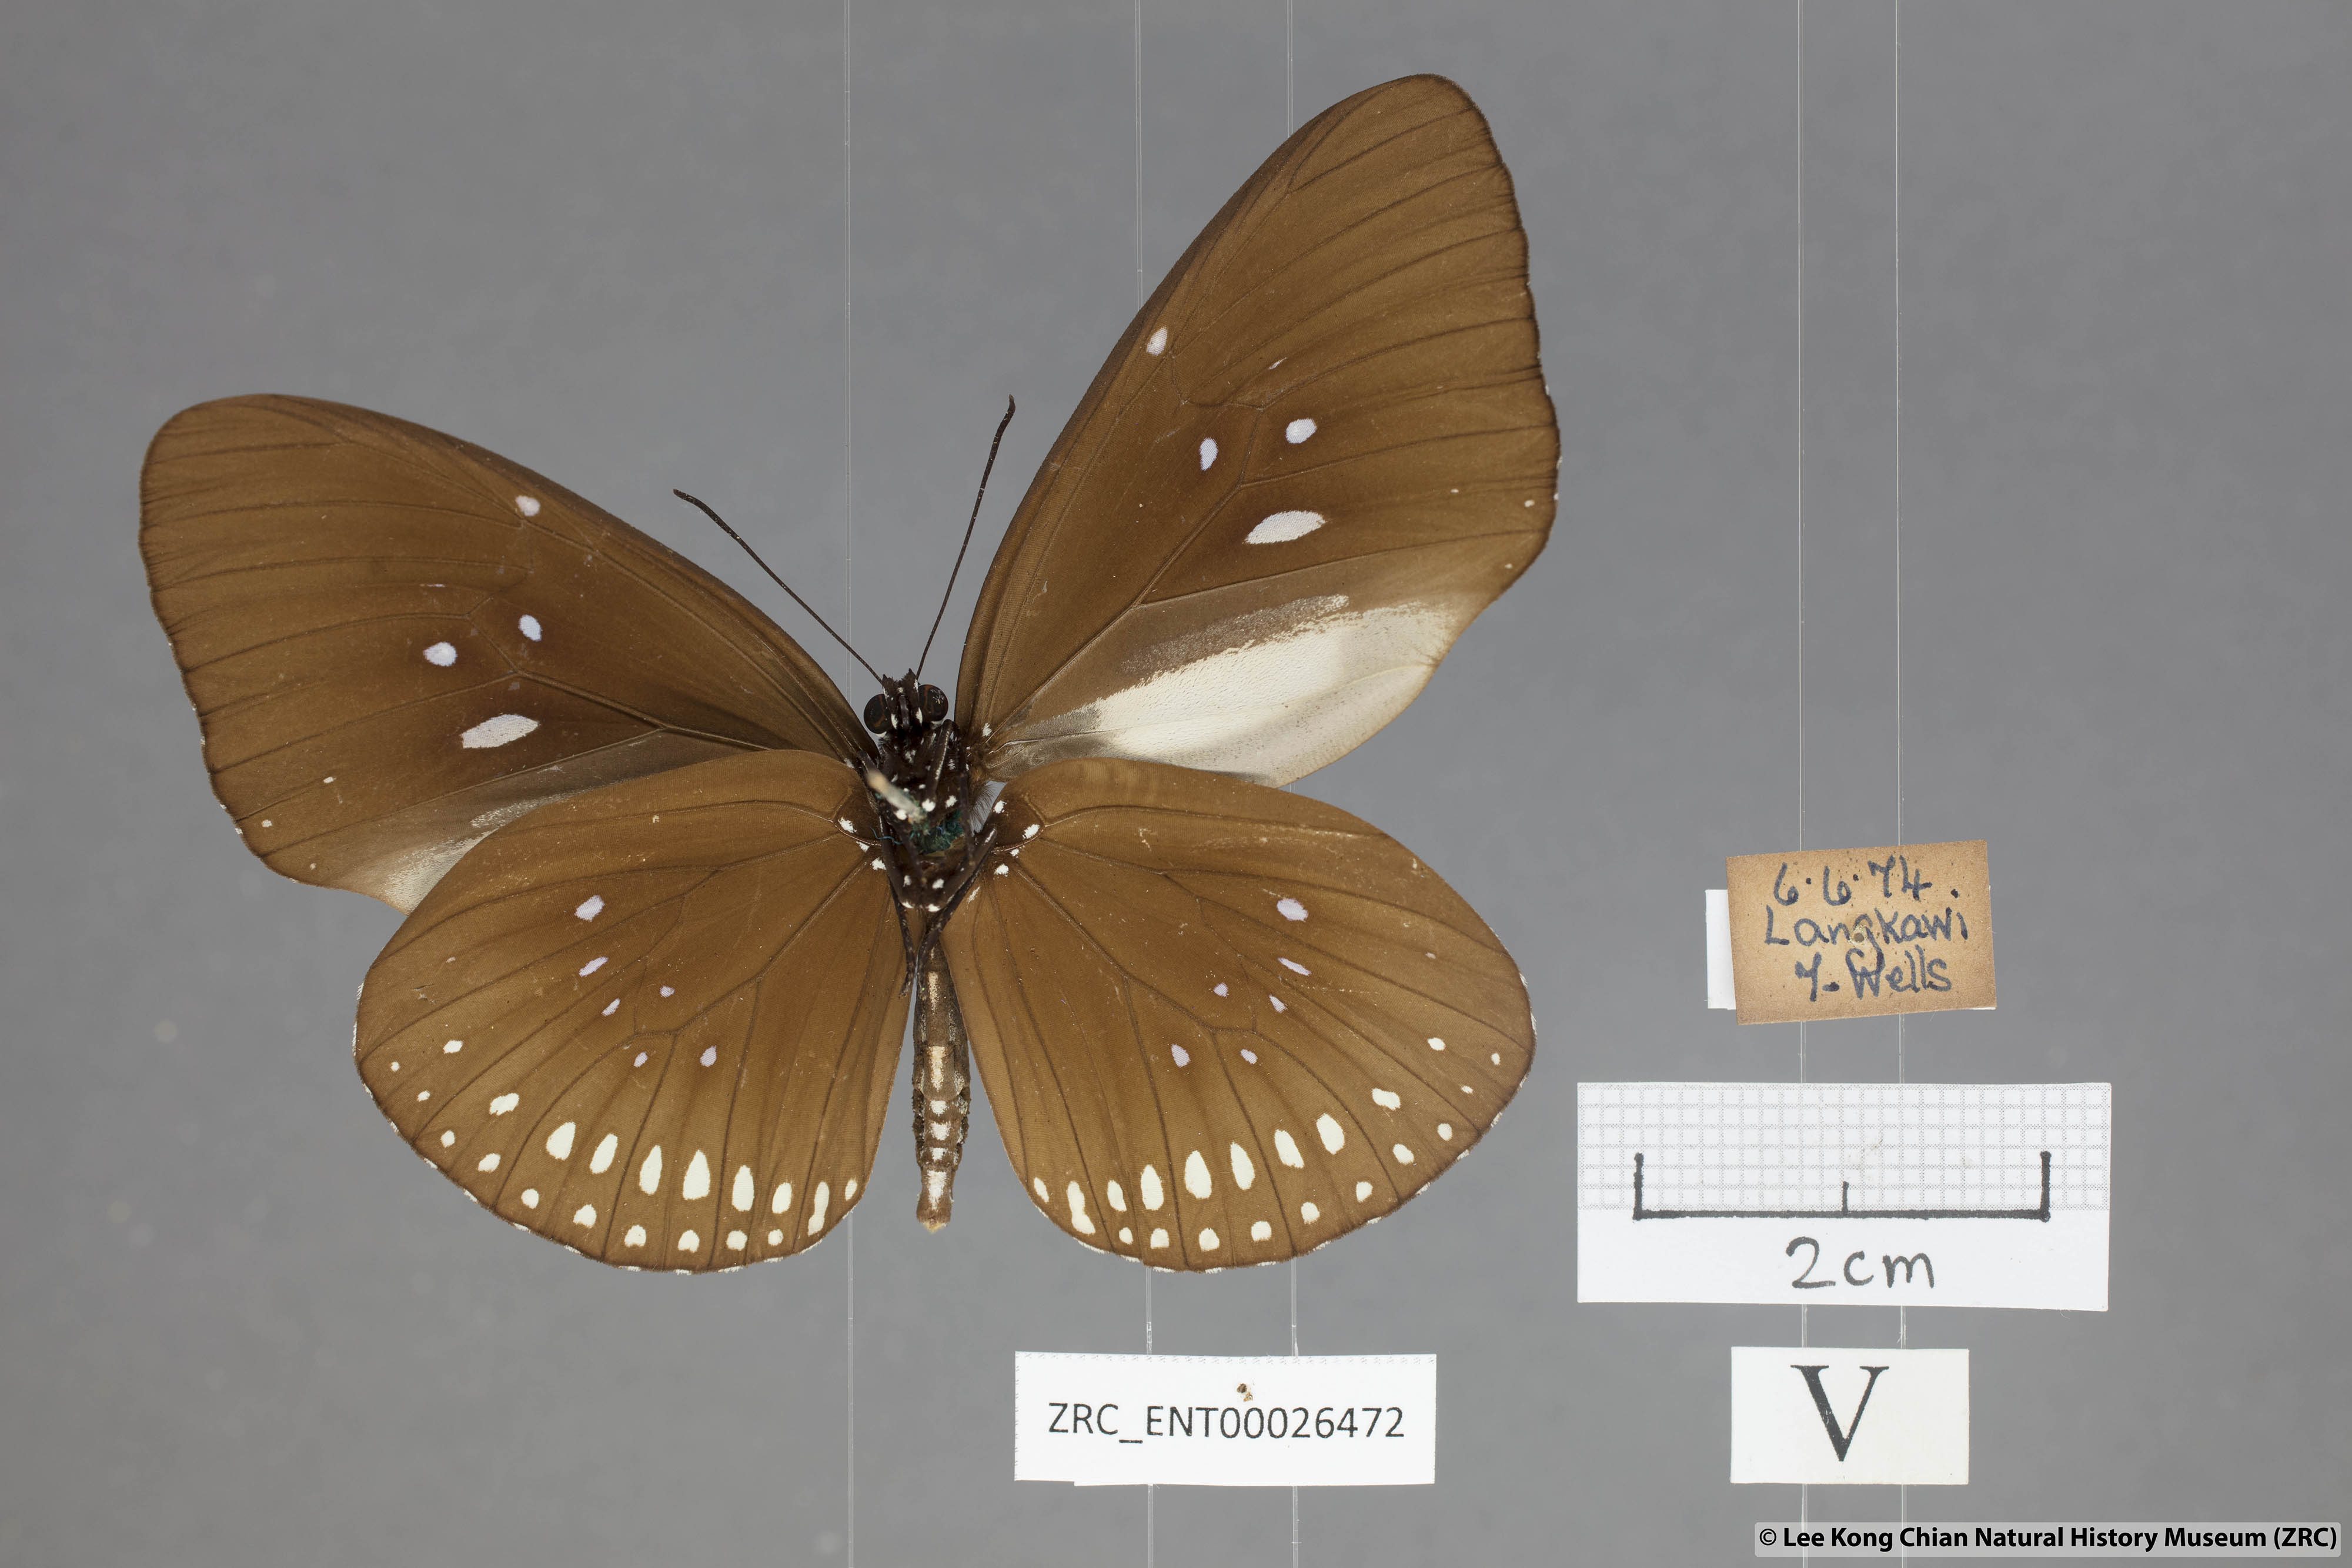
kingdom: Animalia
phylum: Arthropoda
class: Insecta
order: Lepidoptera
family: Nymphalidae
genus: Euploea
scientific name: Euploea modesta
